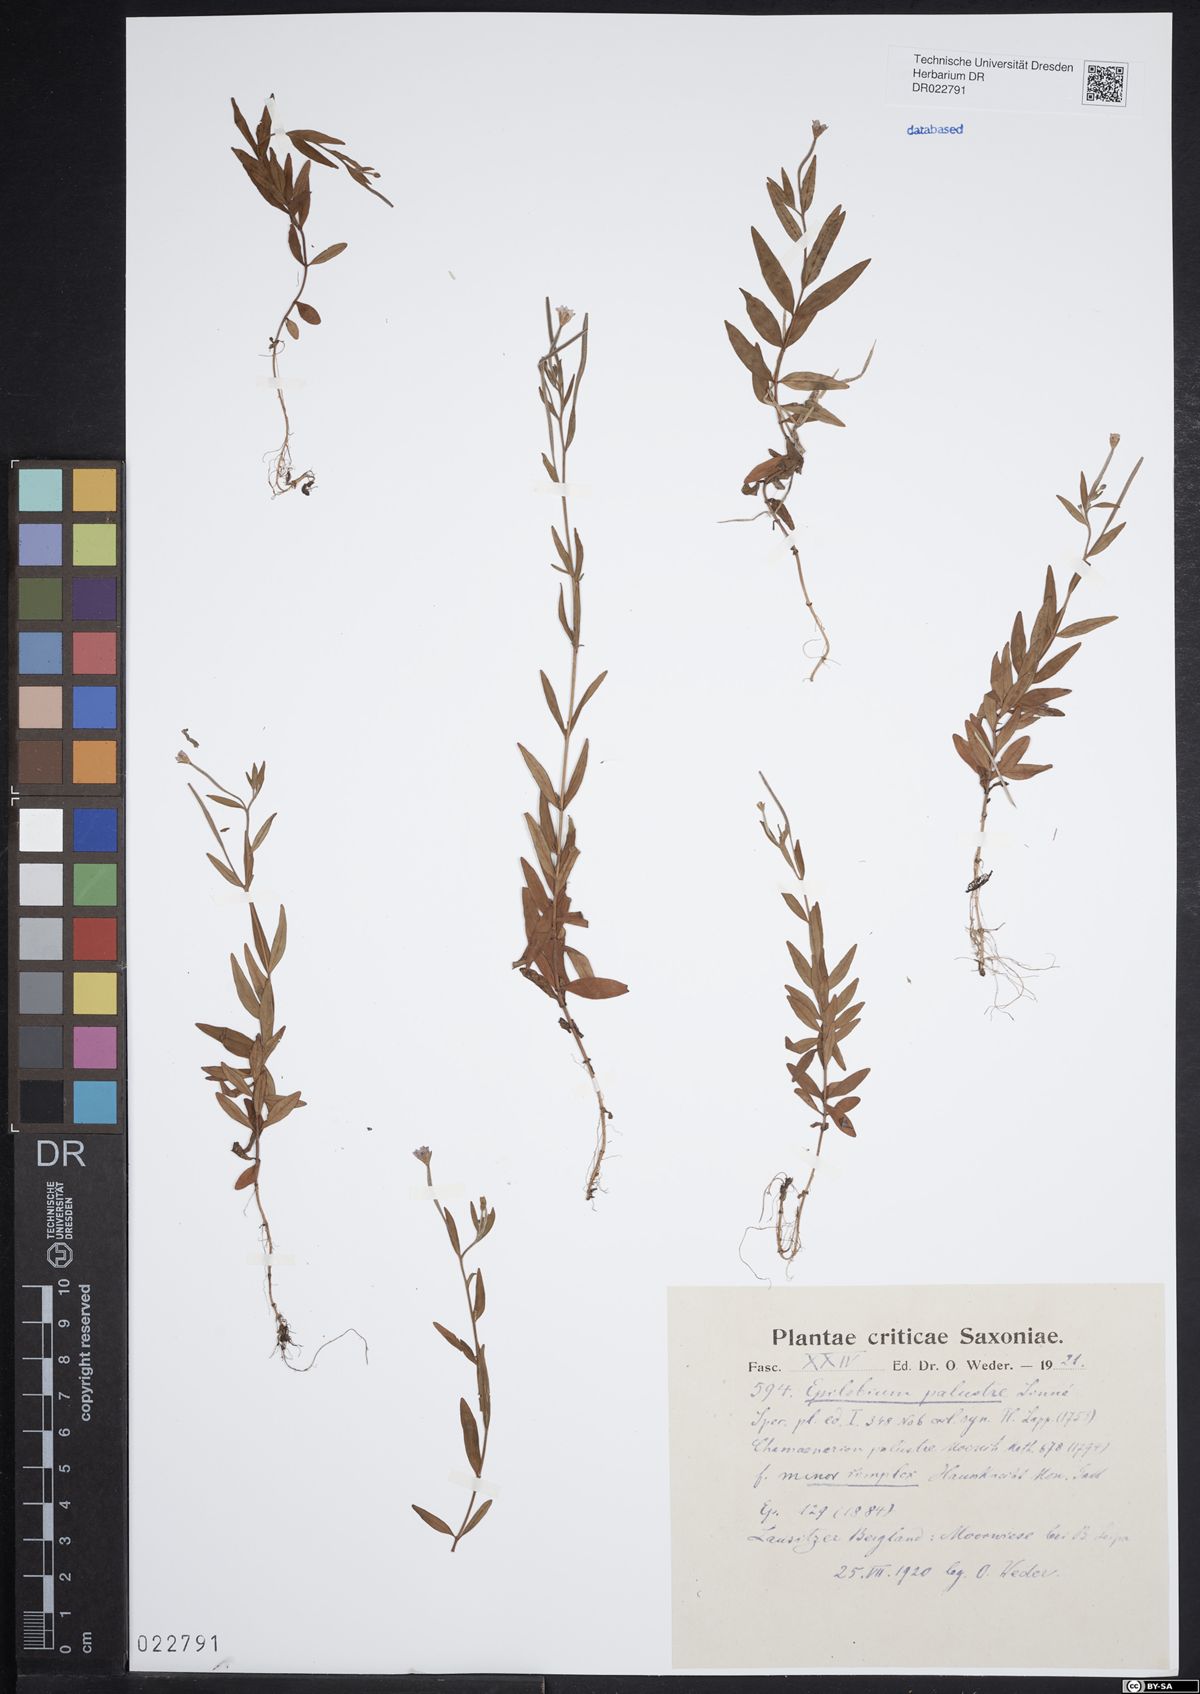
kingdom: Plantae
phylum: Tracheophyta
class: Magnoliopsida
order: Myrtales
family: Onagraceae
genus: Epilobium
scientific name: Epilobium palustre
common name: Marsh willowherb
